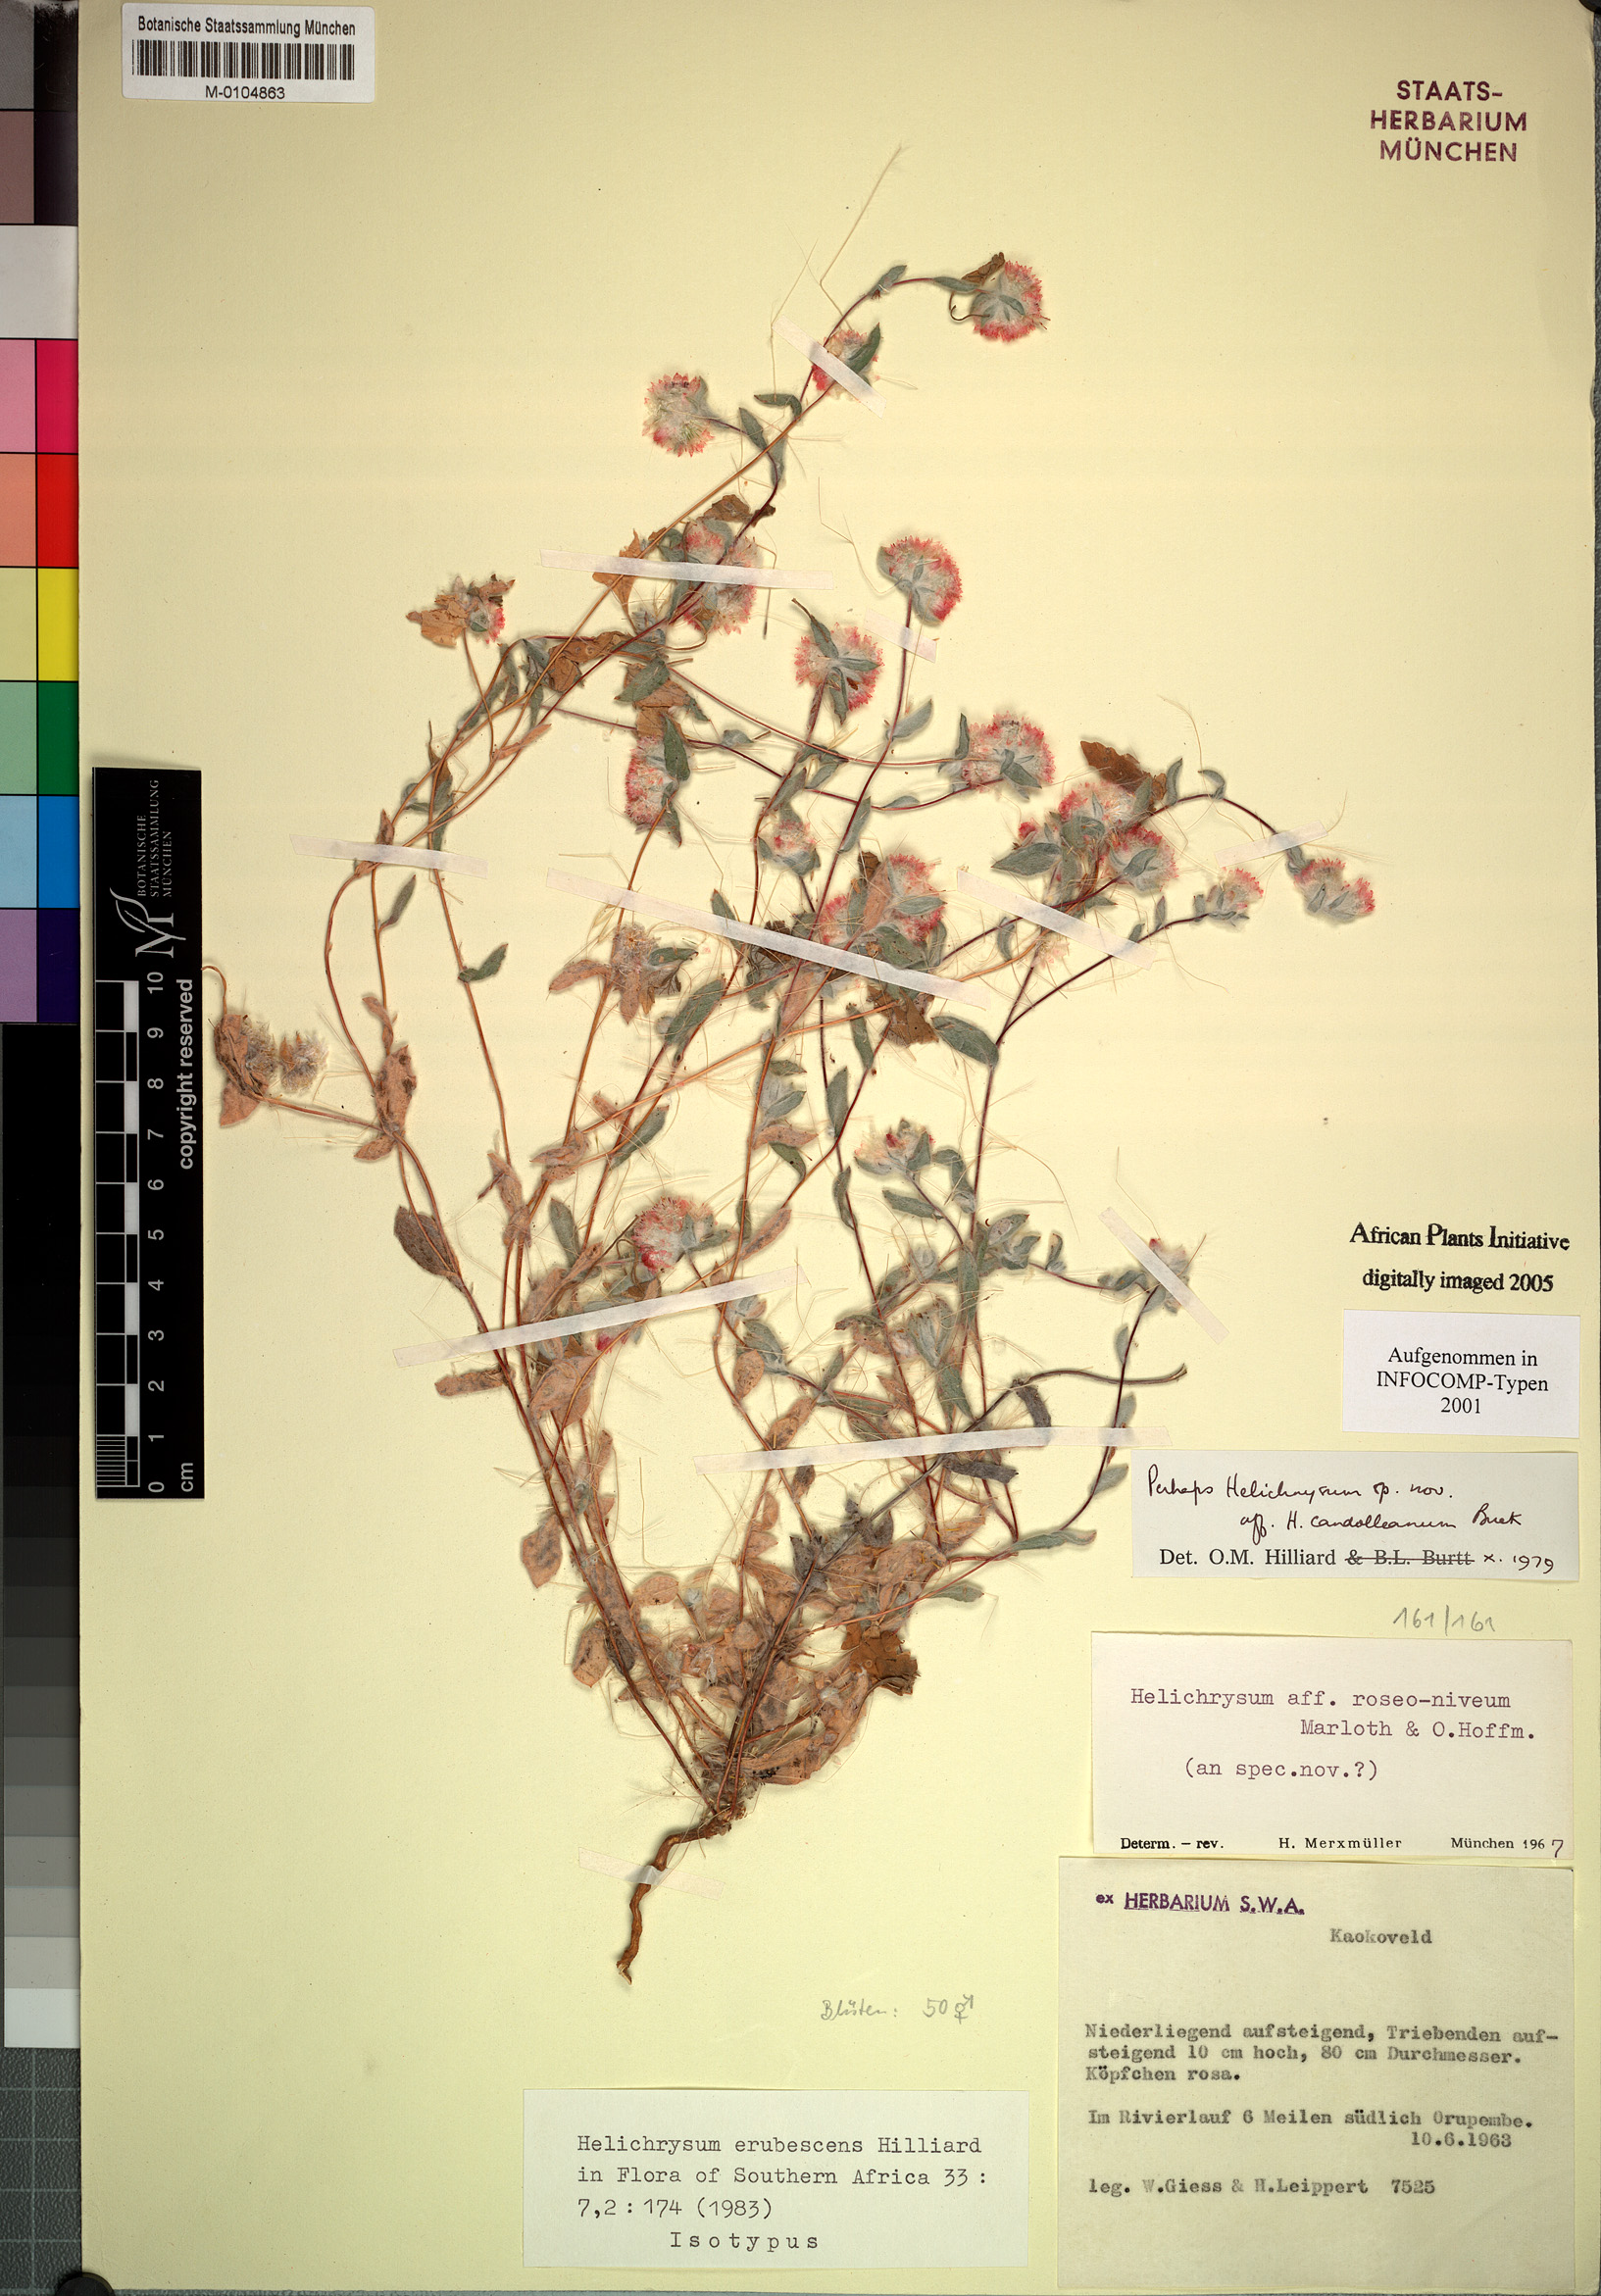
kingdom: Plantae
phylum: Tracheophyta
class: Magnoliopsida
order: Asterales
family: Asteraceae
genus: Helichrysum
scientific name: Helichrysum erubescens
